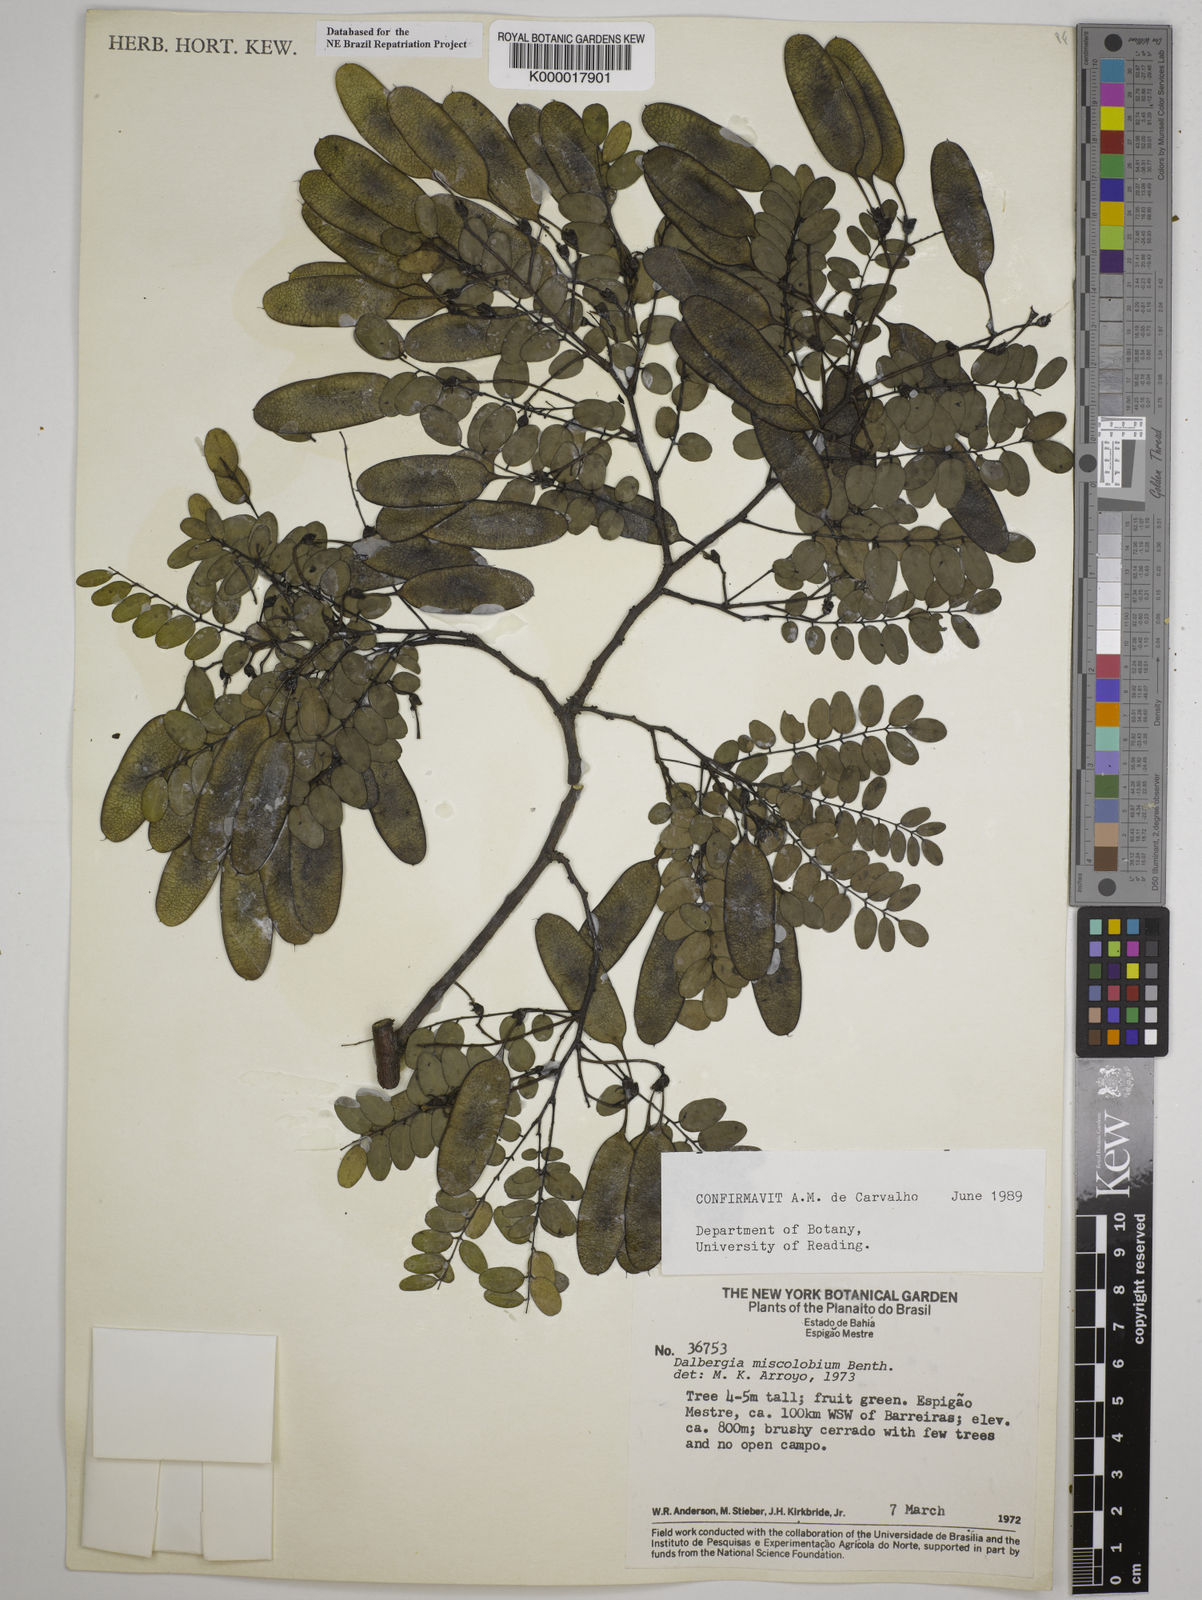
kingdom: Plantae
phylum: Tracheophyta
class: Magnoliopsida
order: Fabales
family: Fabaceae
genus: Dalbergia
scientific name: Dalbergia miscolobium
